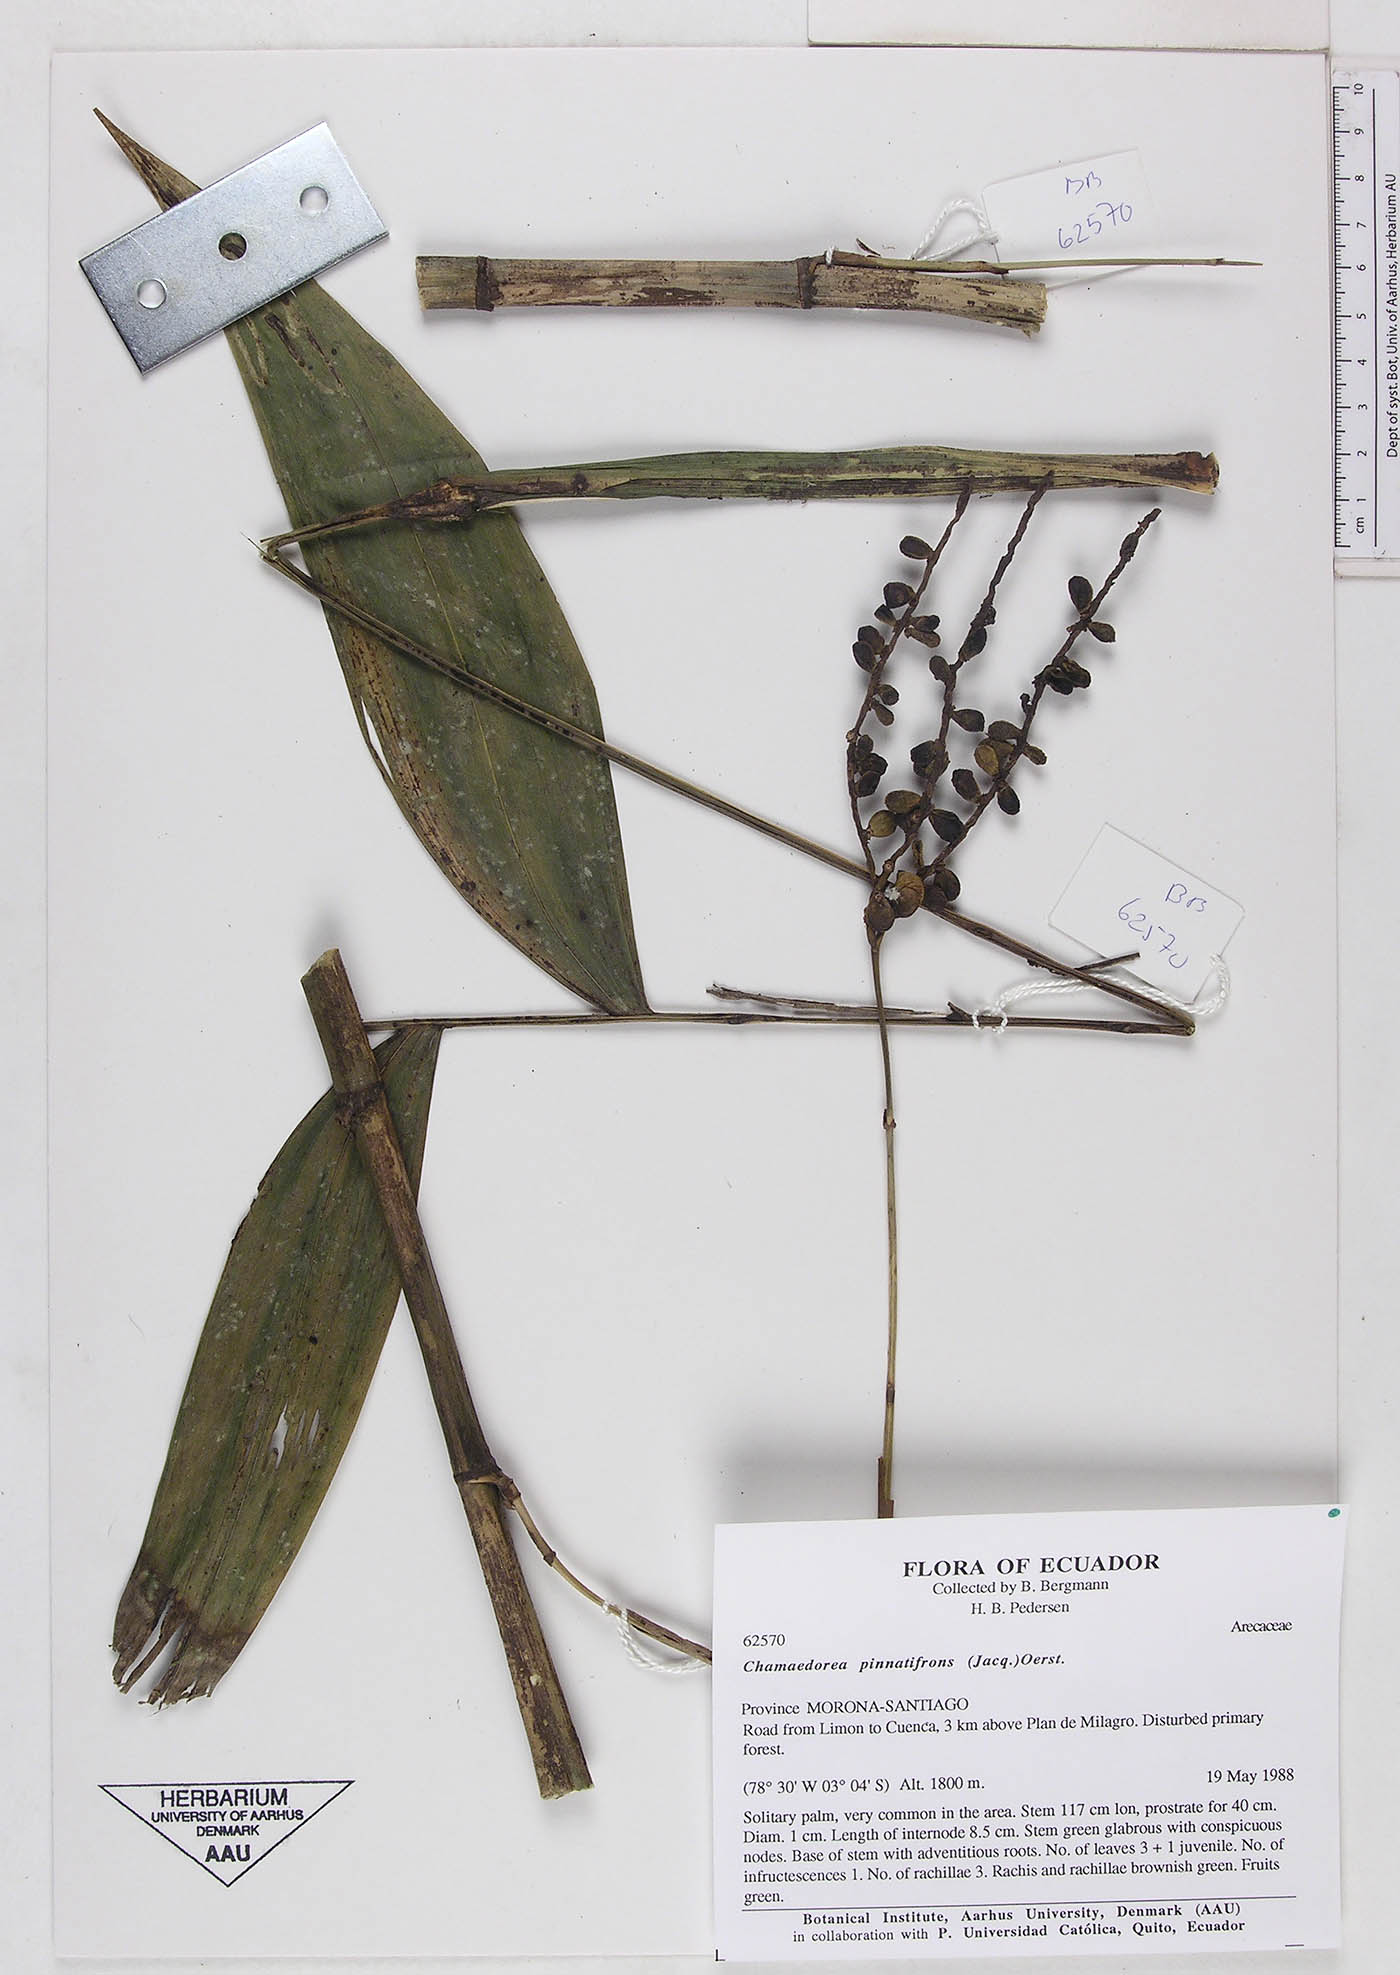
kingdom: Plantae
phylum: Tracheophyta
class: Liliopsida
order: Arecales
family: Arecaceae
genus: Chamaedorea
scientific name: Chamaedorea pinnatifrons
